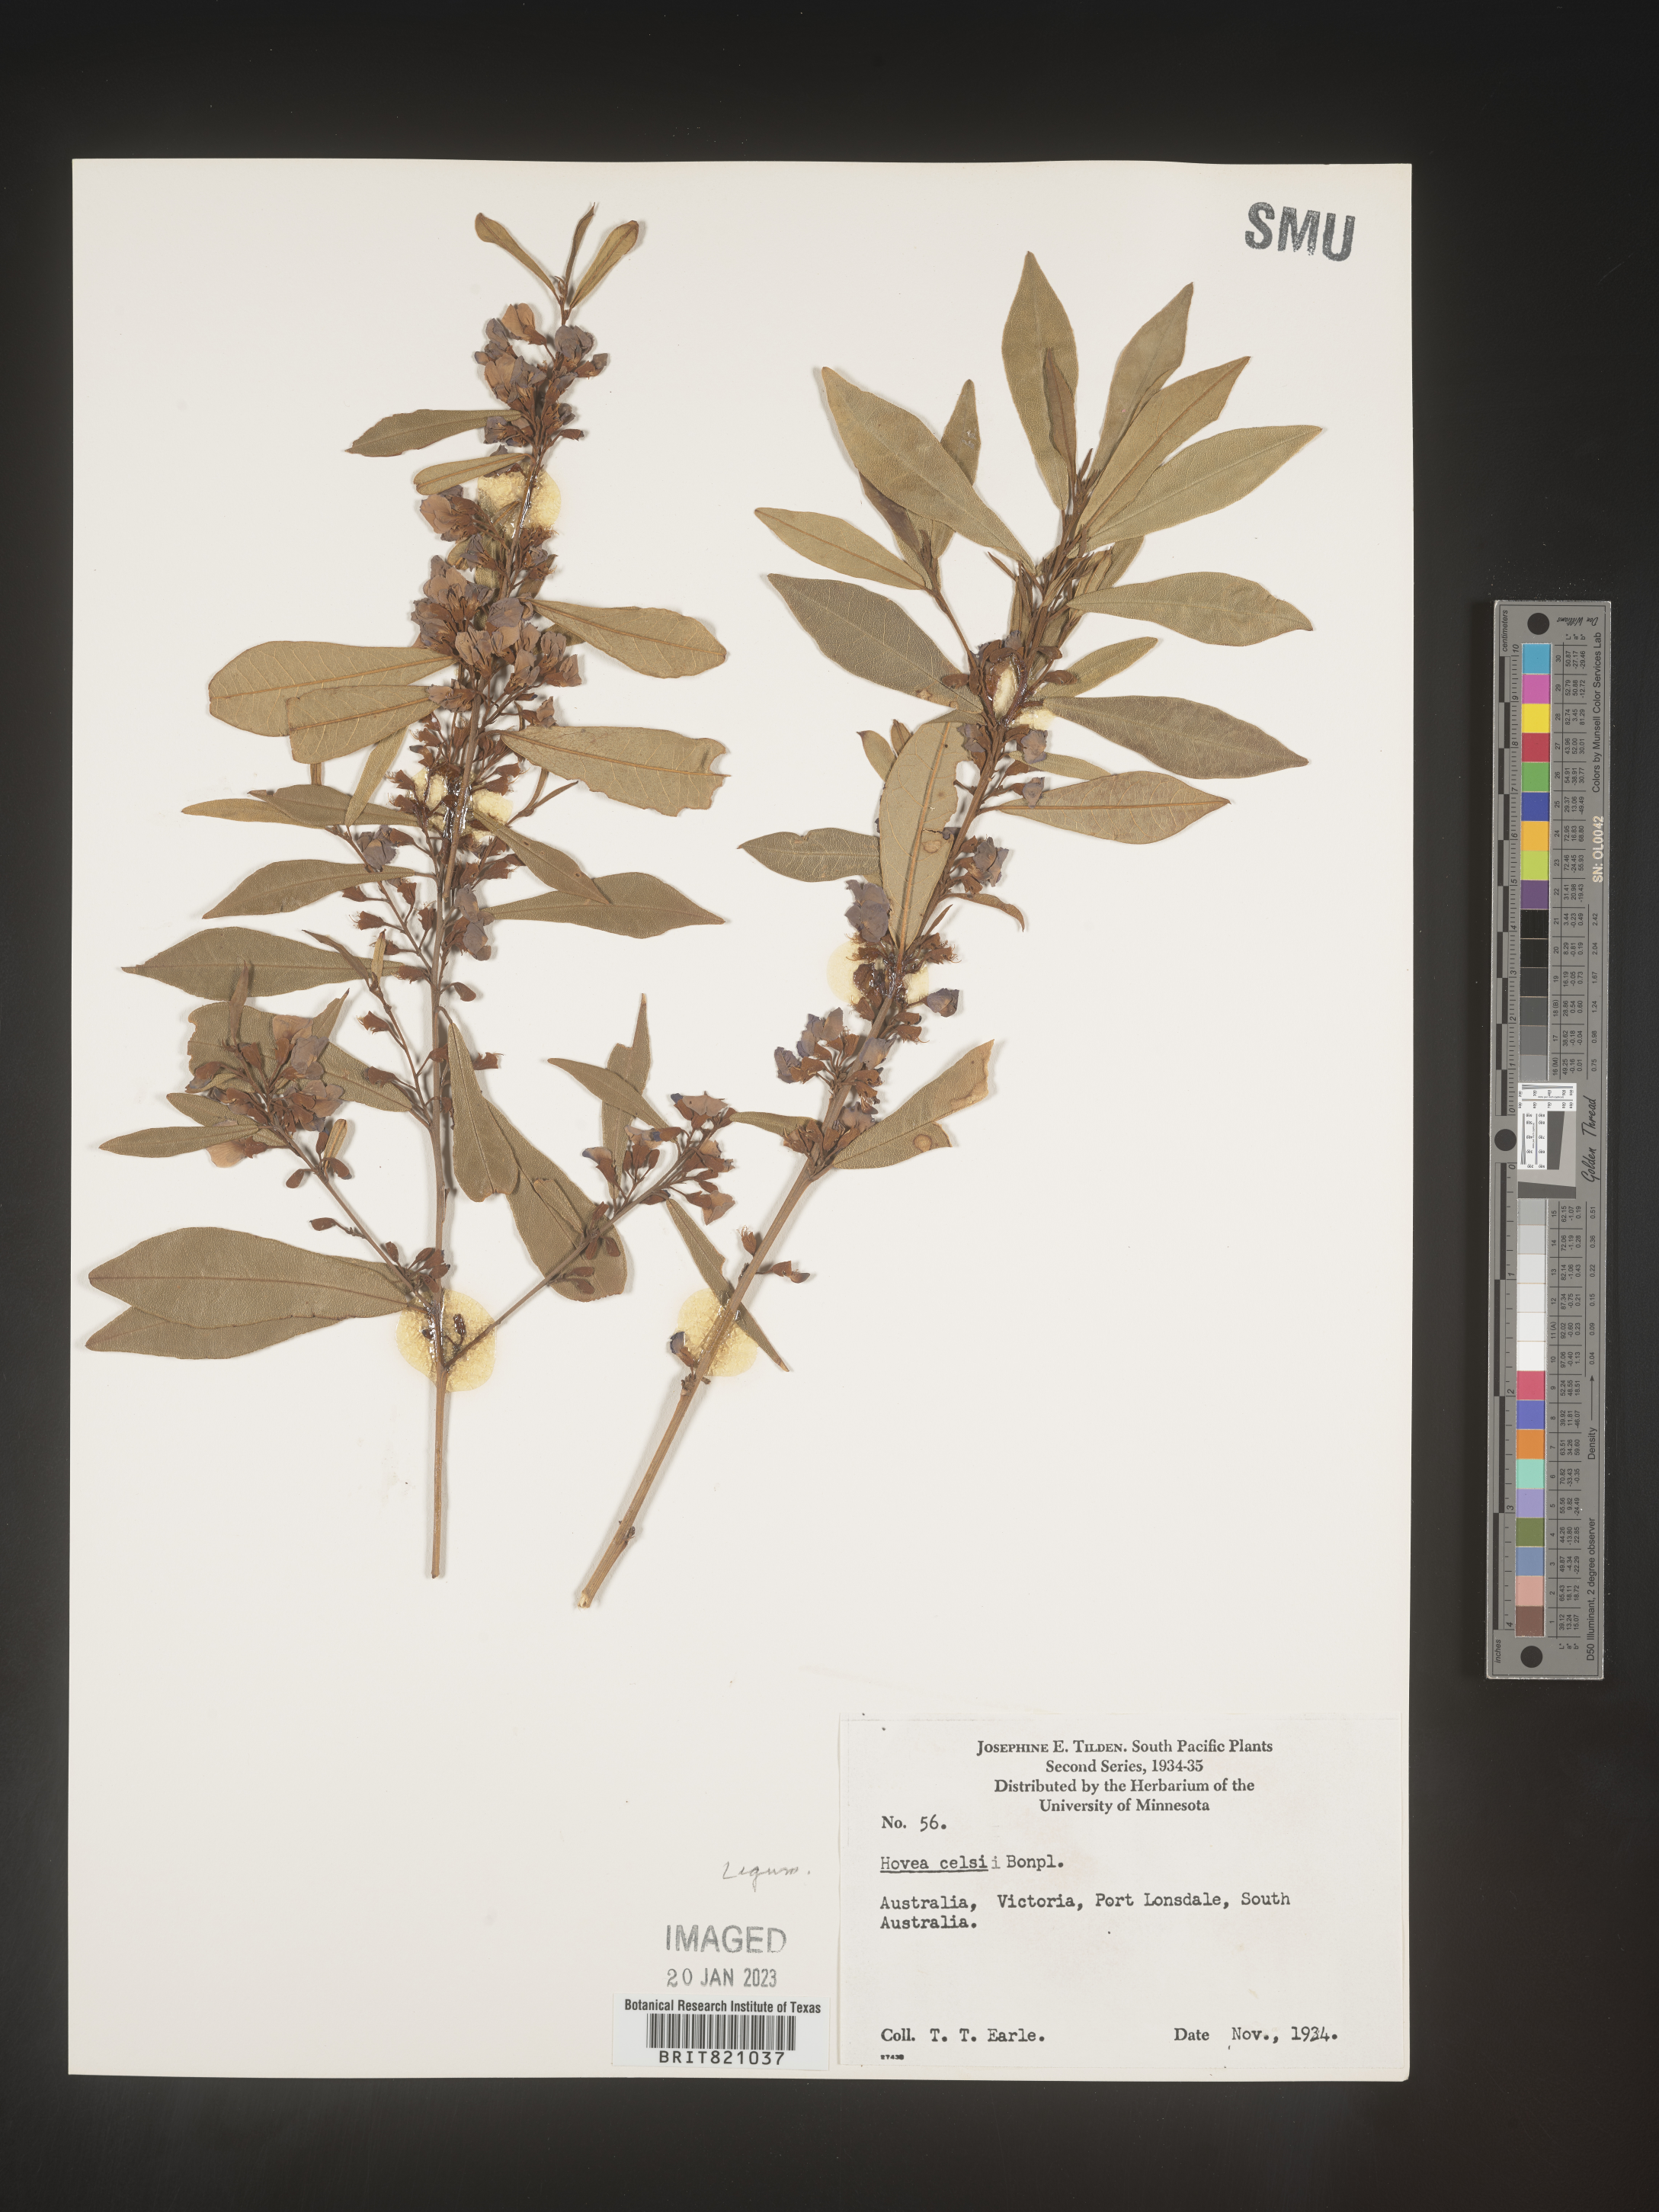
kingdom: Plantae
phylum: Tracheophyta
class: Magnoliopsida
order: Fabales
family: Fabaceae
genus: Hovea
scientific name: Hovea
